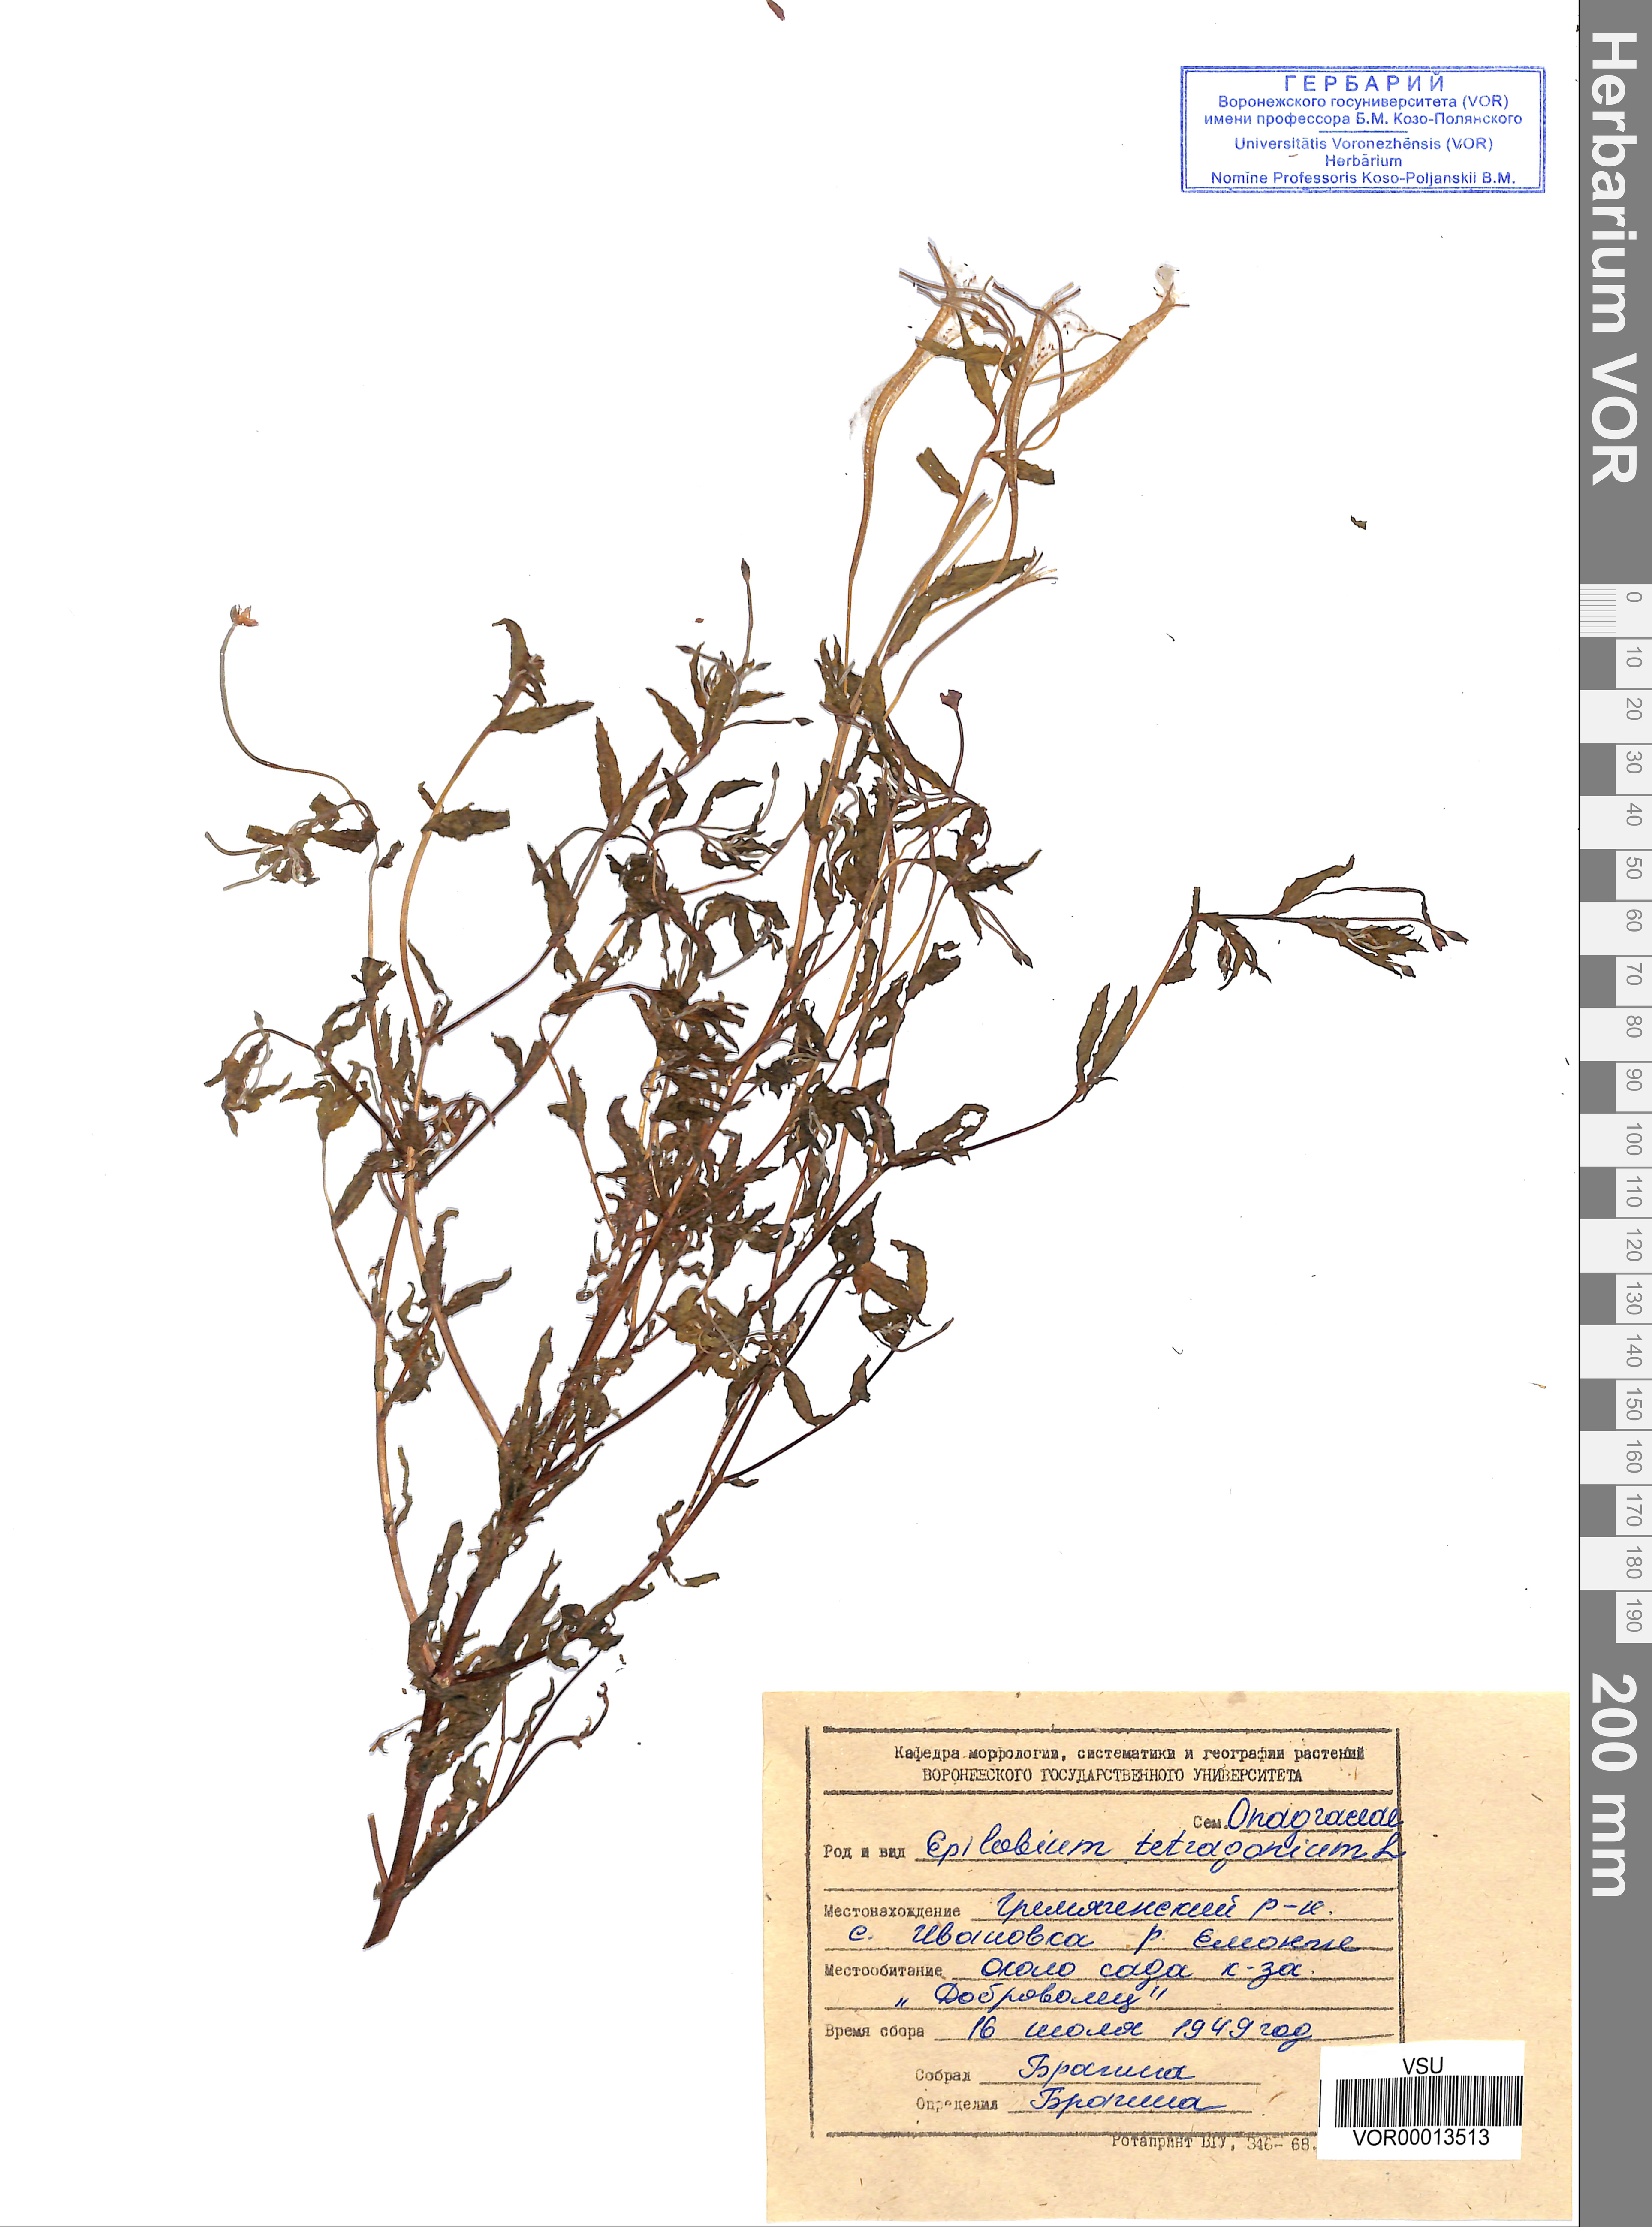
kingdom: Plantae
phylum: Tracheophyta
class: Magnoliopsida
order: Myrtales
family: Onagraceae
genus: Epilobium
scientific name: Epilobium tetragonum
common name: Square-stemmed willowherb
